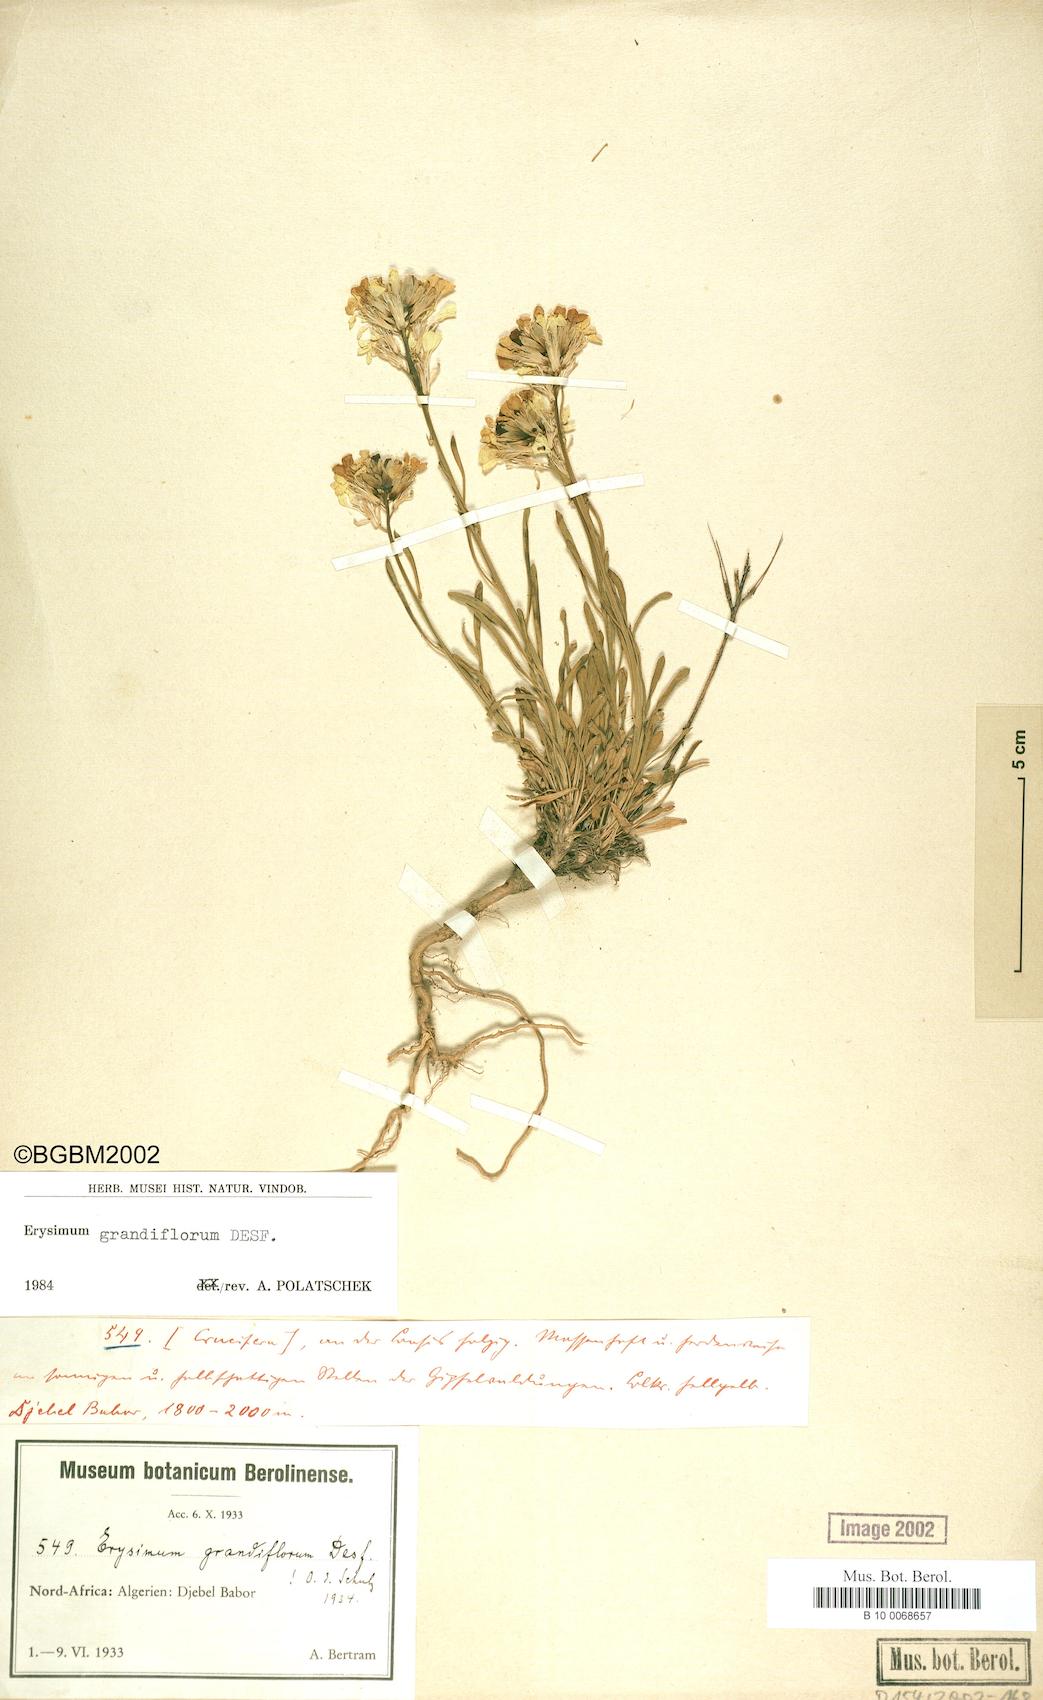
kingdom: Plantae
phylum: Tracheophyta
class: Magnoliopsida
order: Brassicales
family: Brassicaceae
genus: Erysimum
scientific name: Erysimum grandiflorum
